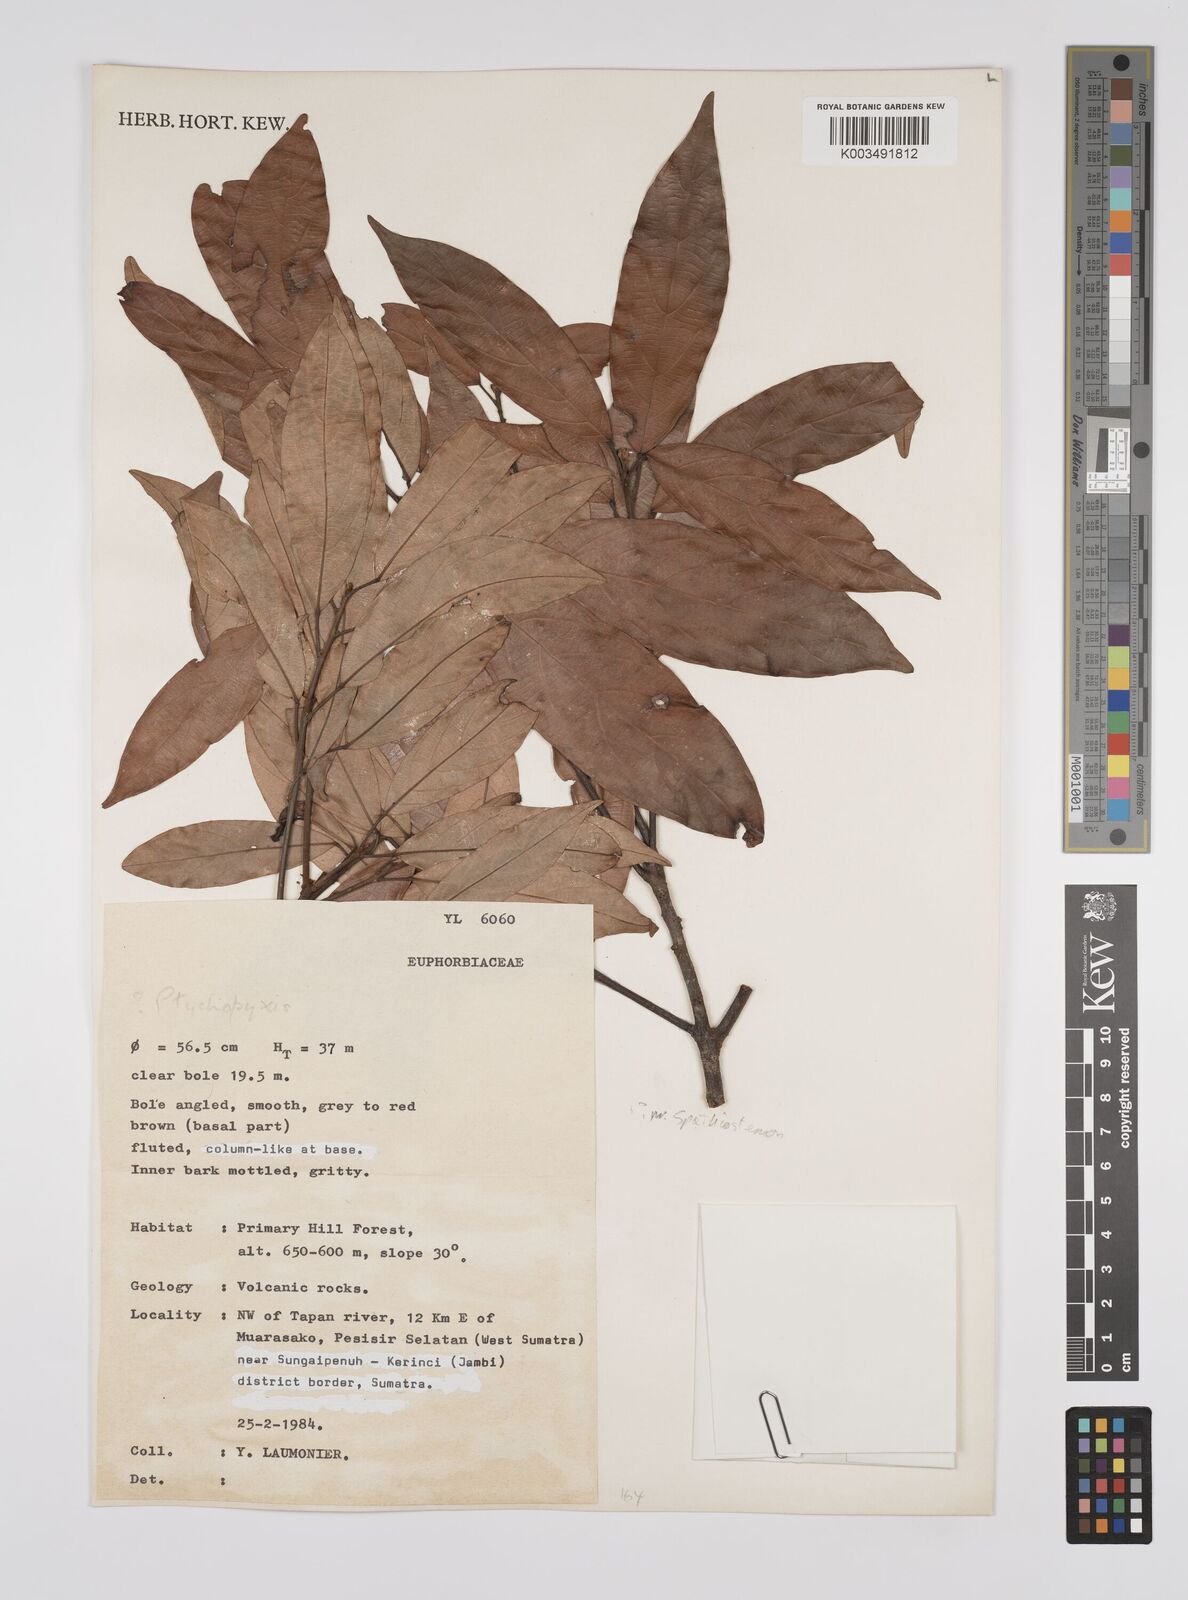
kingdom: Plantae
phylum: Tracheophyta
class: Magnoliopsida
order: Malpighiales
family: Euphorbiaceae
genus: Ptychopyxis
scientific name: Ptychopyxis
